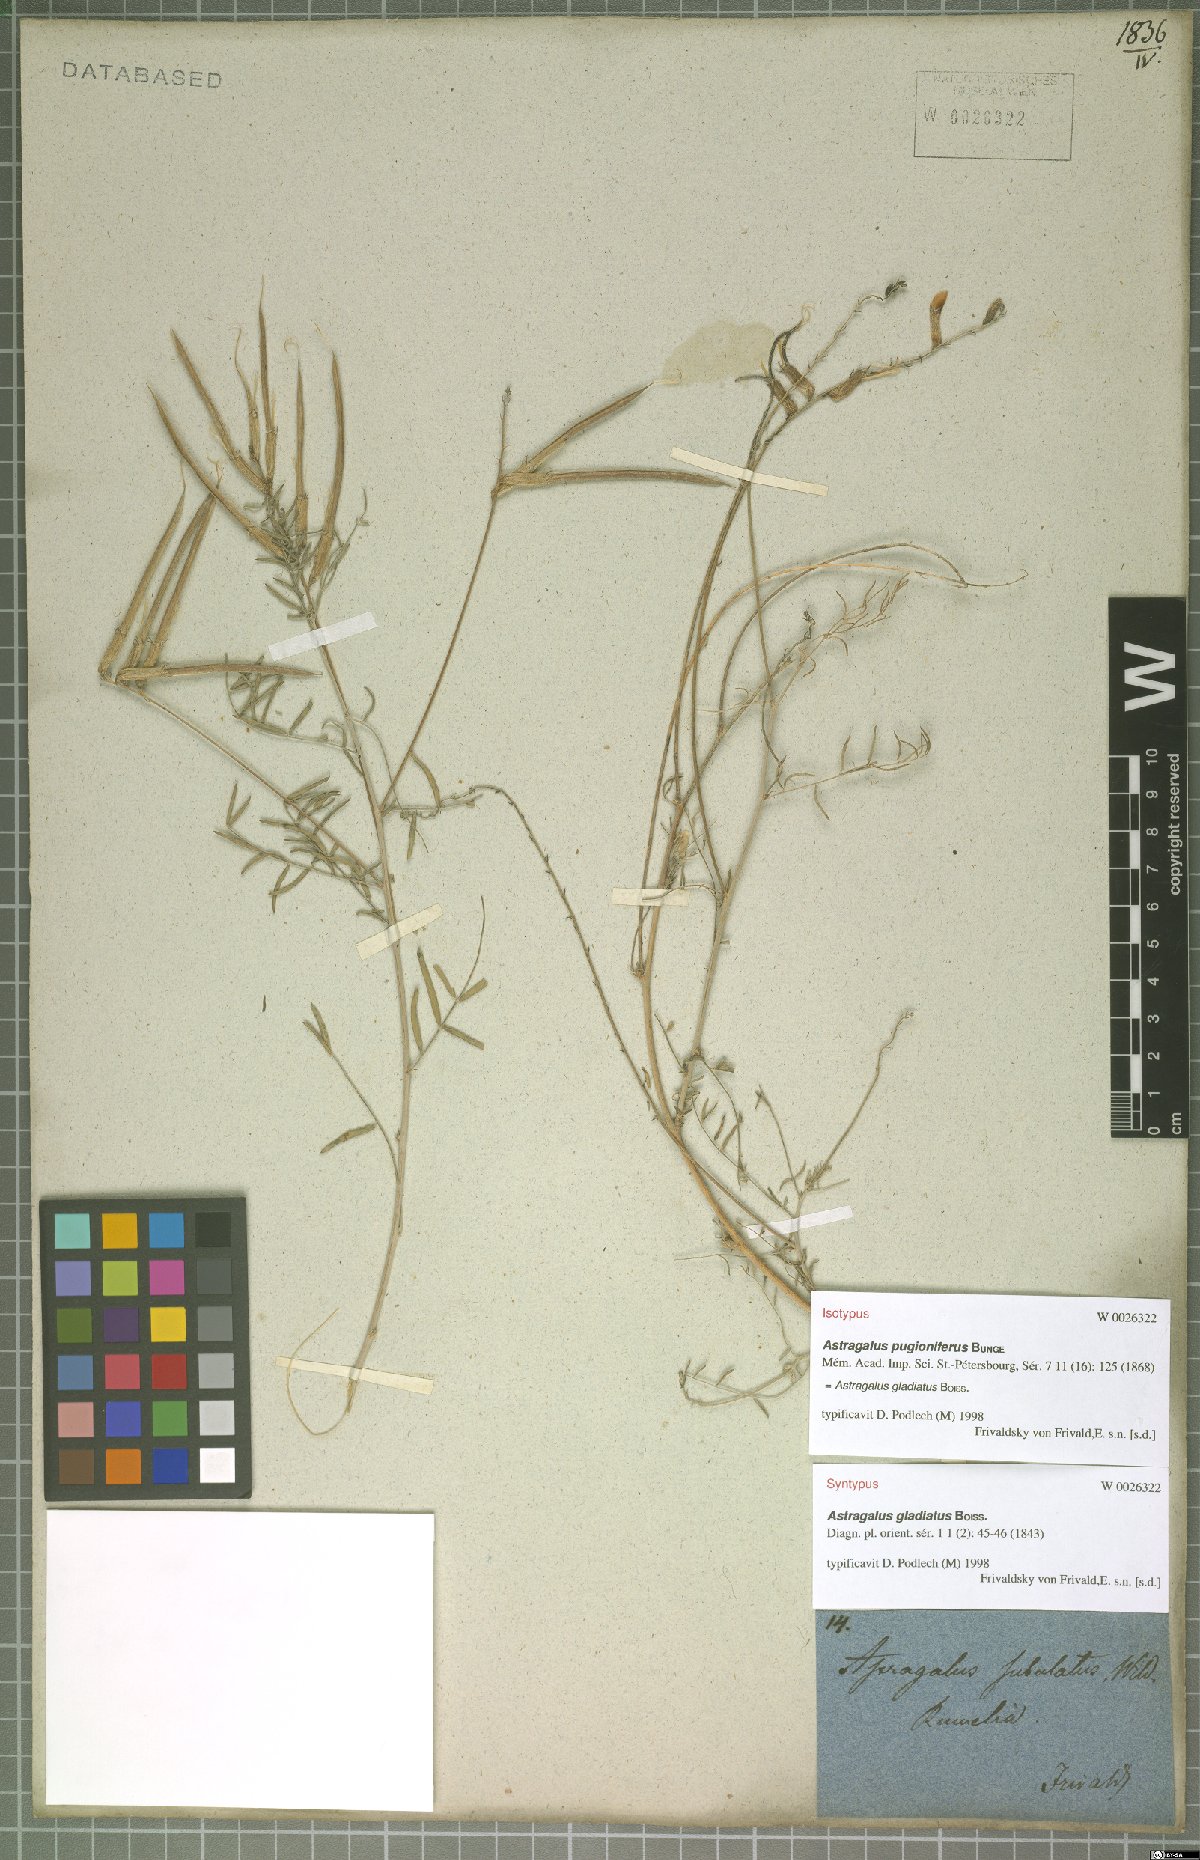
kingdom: Plantae
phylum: Tracheophyta
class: Magnoliopsida
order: Fabales
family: Fabaceae
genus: Astragalus
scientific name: Astragalus gladiatus
